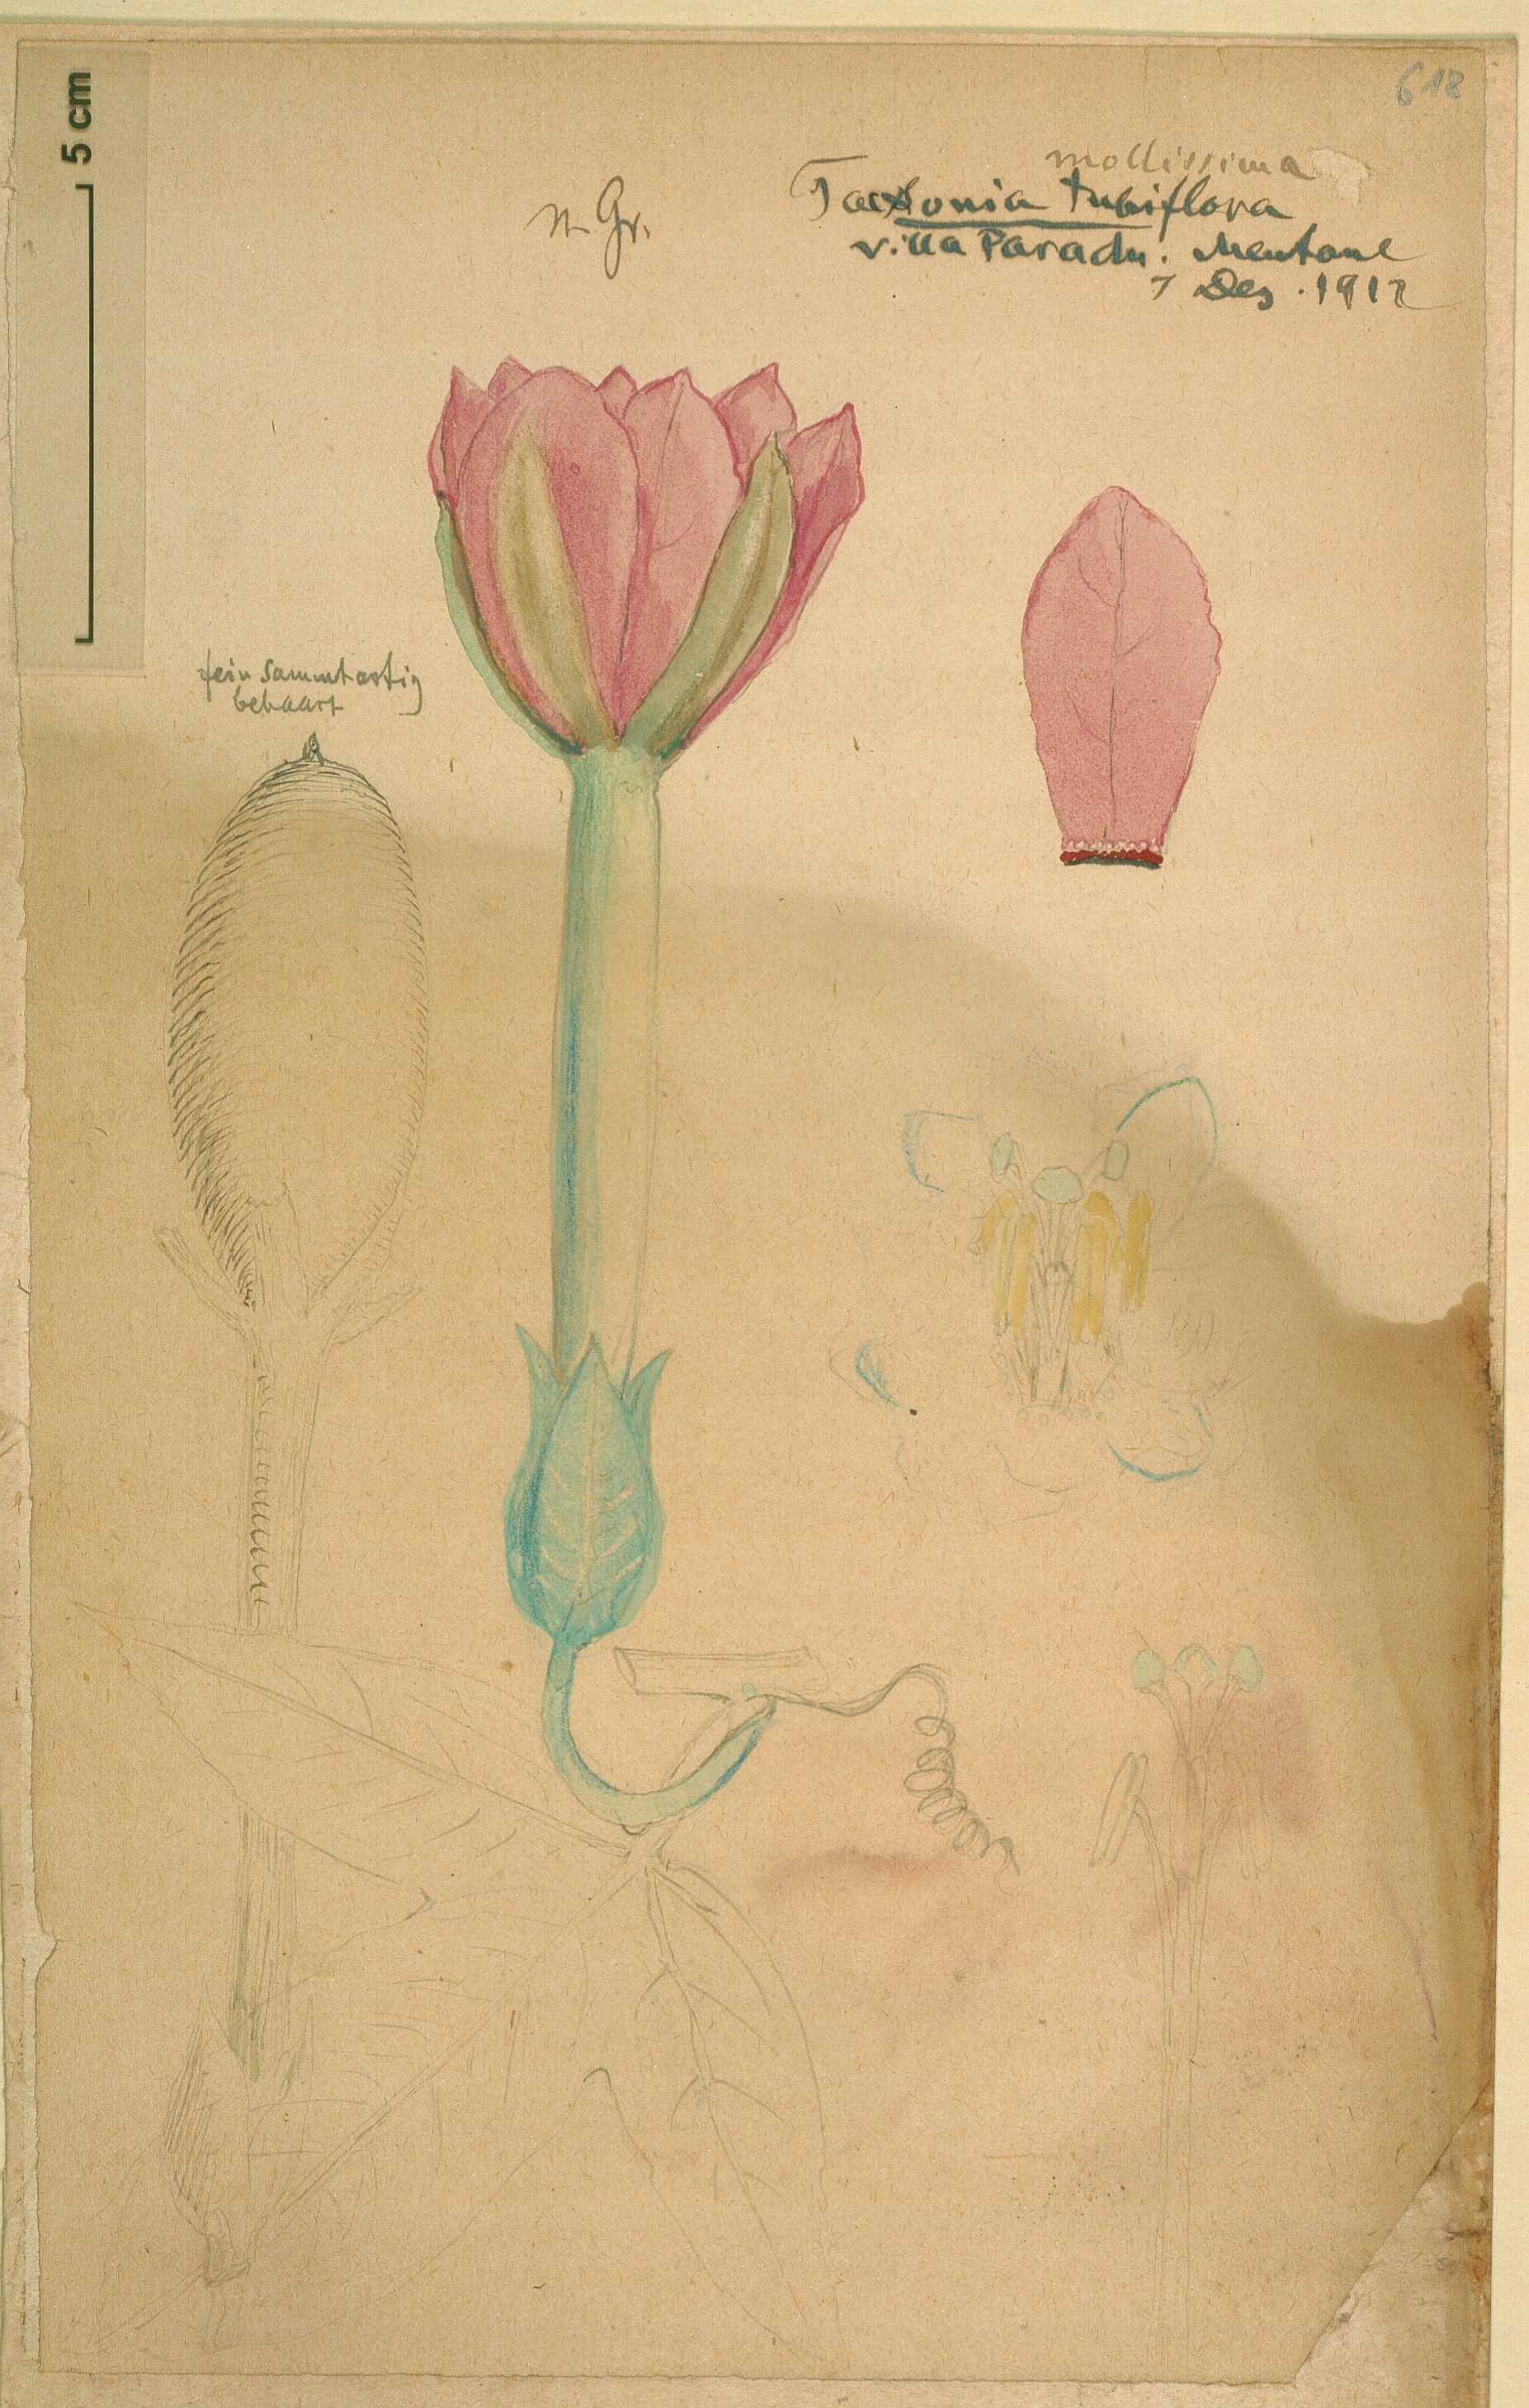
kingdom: Plantae
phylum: Tracheophyta
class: Magnoliopsida
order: Malpighiales
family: Passifloraceae
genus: Passiflora
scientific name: Passiflora tripartita
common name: Banana poka
